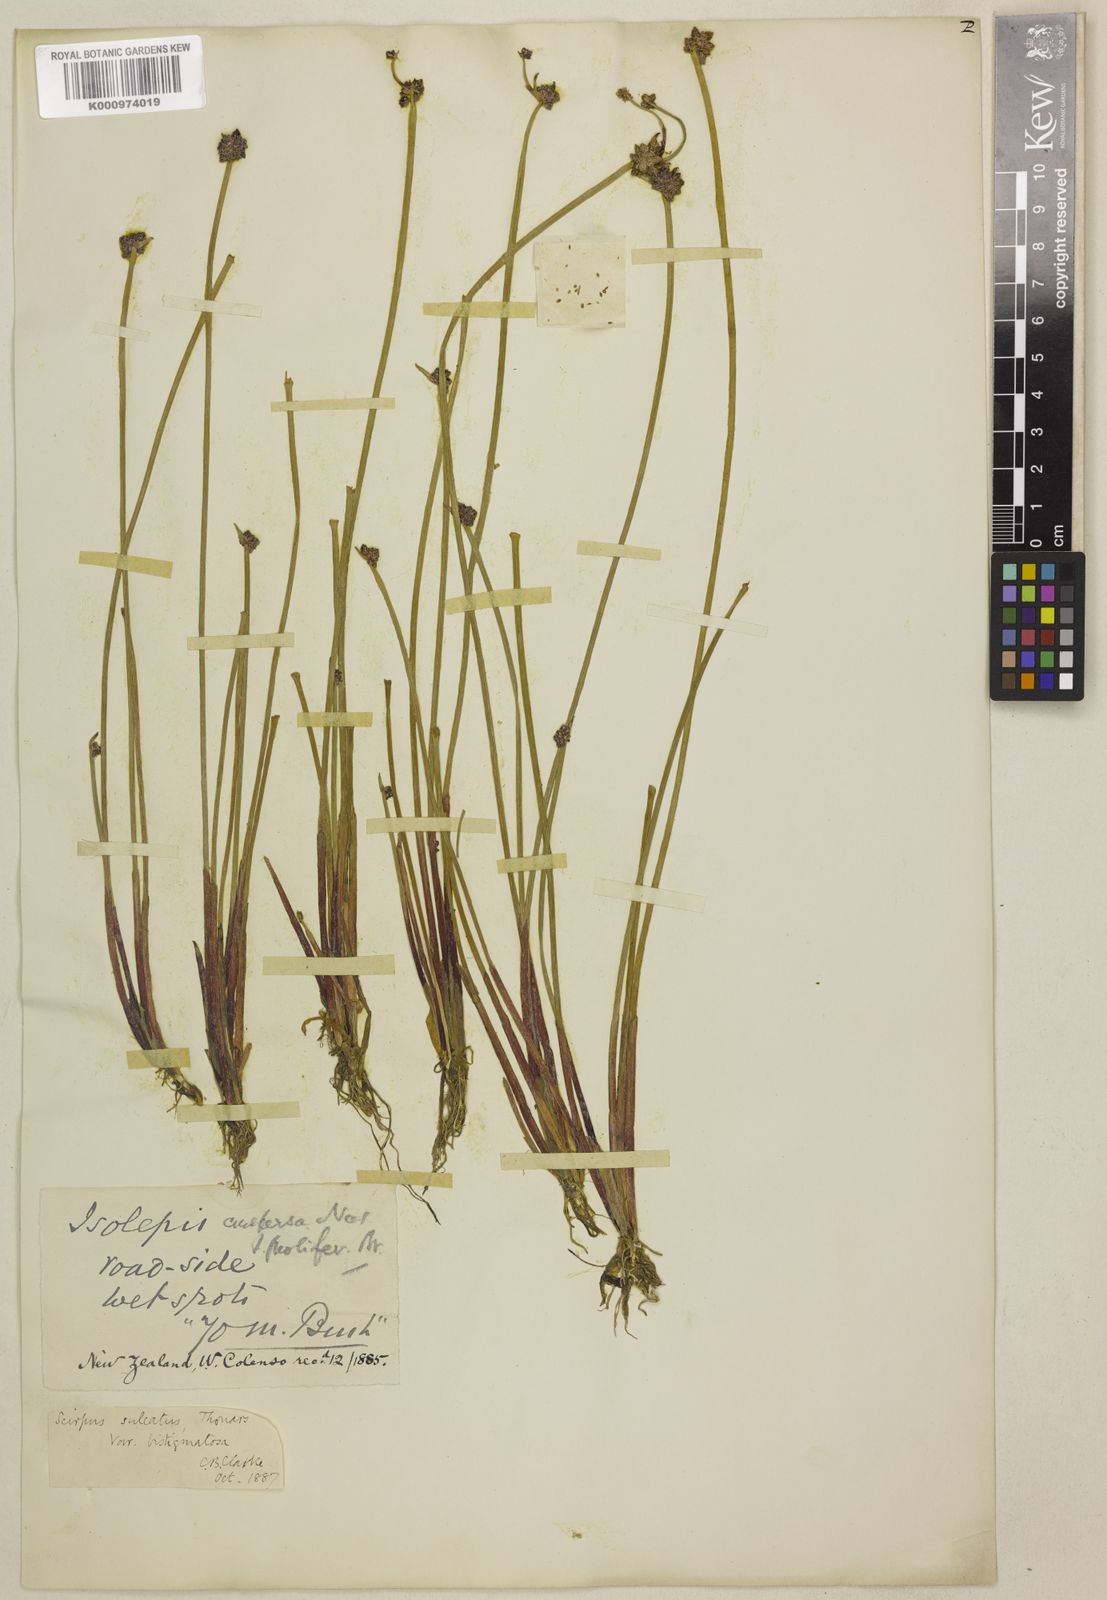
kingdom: Plantae
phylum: Tracheophyta
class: Liliopsida
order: Poales
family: Cyperaceae
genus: Isolepis
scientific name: Isolepis distigmatosa
